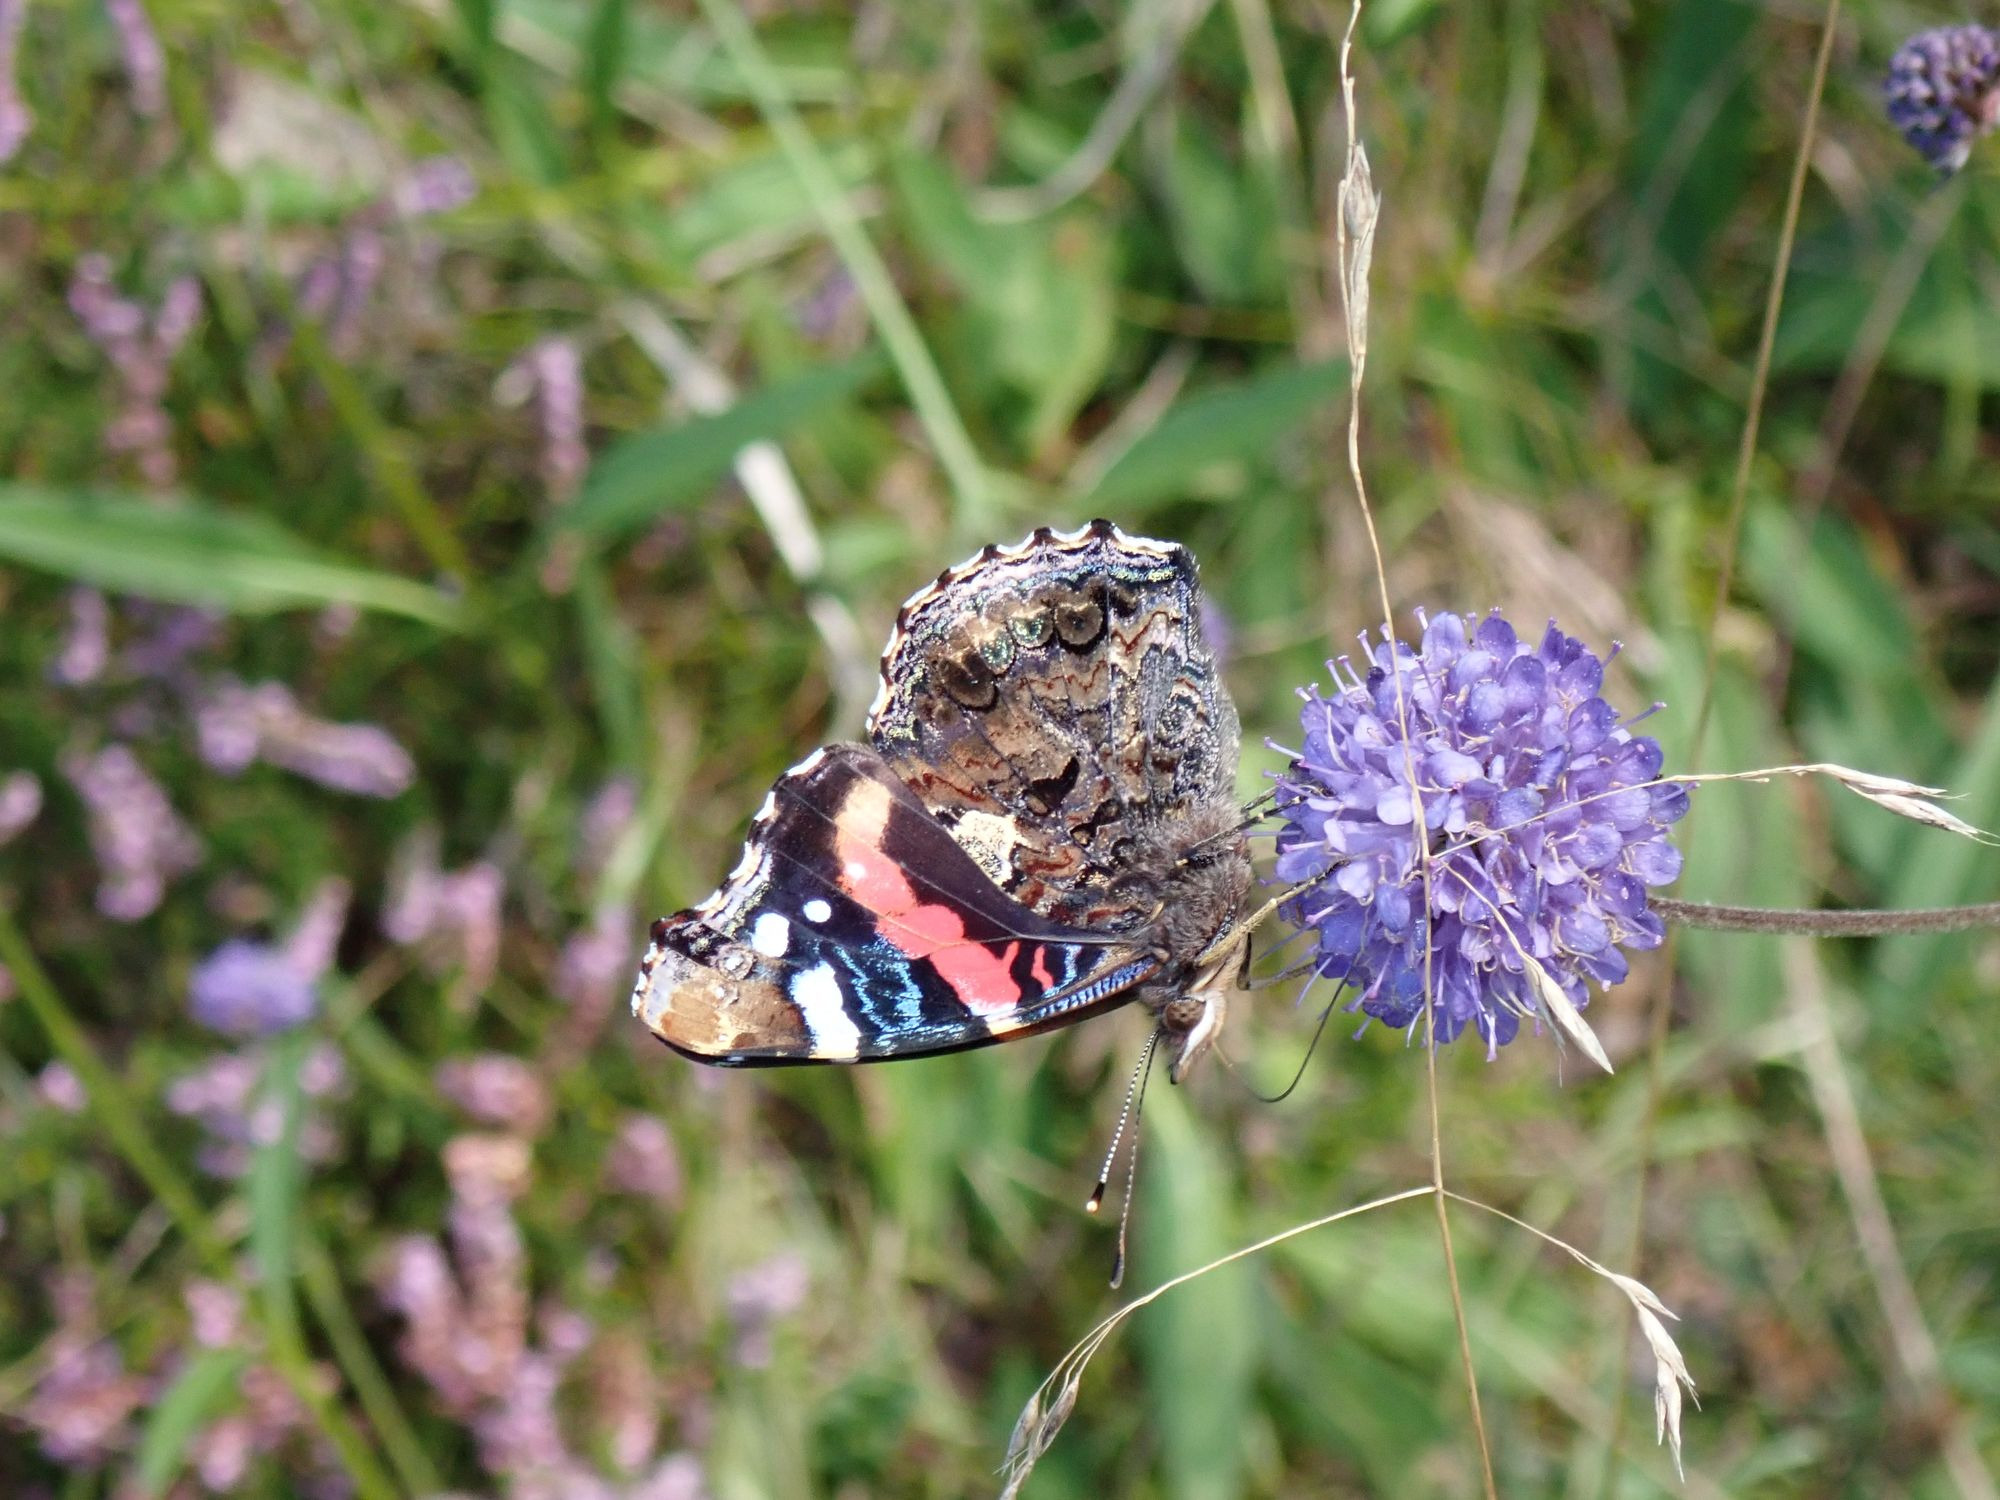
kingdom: Animalia
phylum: Arthropoda
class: Insecta
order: Lepidoptera
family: Nymphalidae
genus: Vanessa
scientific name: Vanessa atalanta
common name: Admiral
